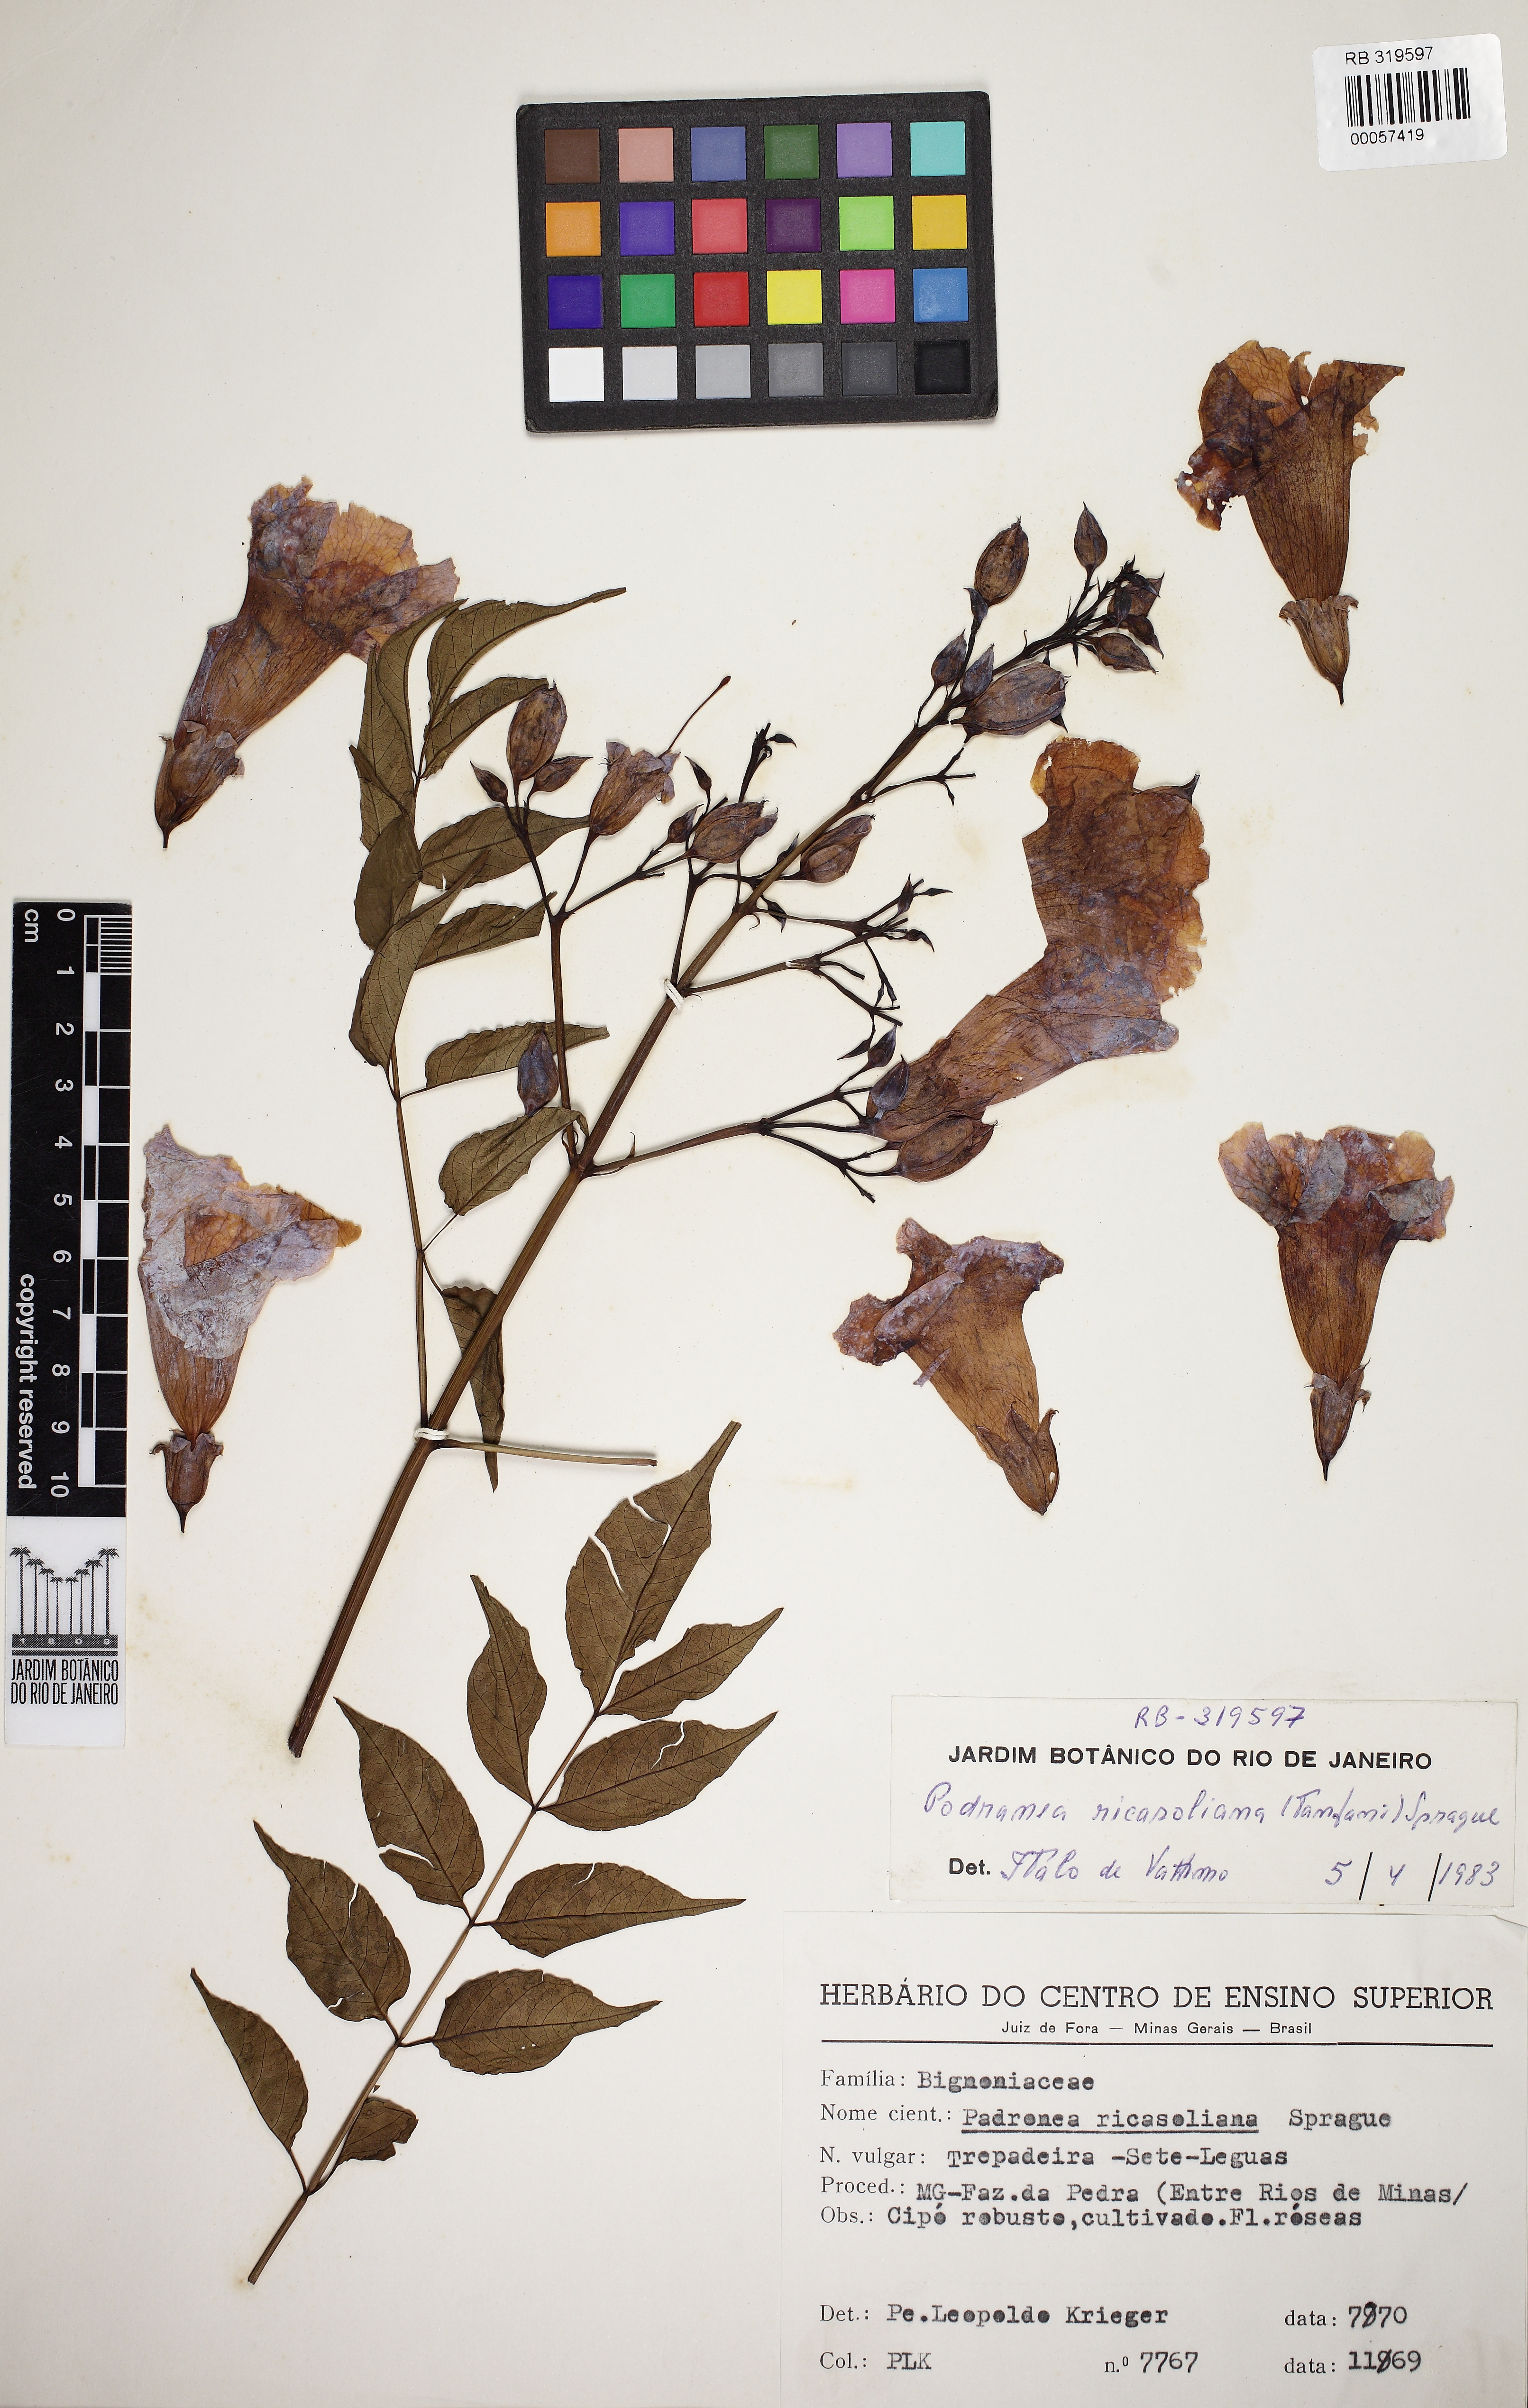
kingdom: Plantae
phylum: Tracheophyta
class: Magnoliopsida
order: Lamiales
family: Bignoniaceae
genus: Podranea
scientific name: Podranea ricasoliana
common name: Zimbabwe creeper
